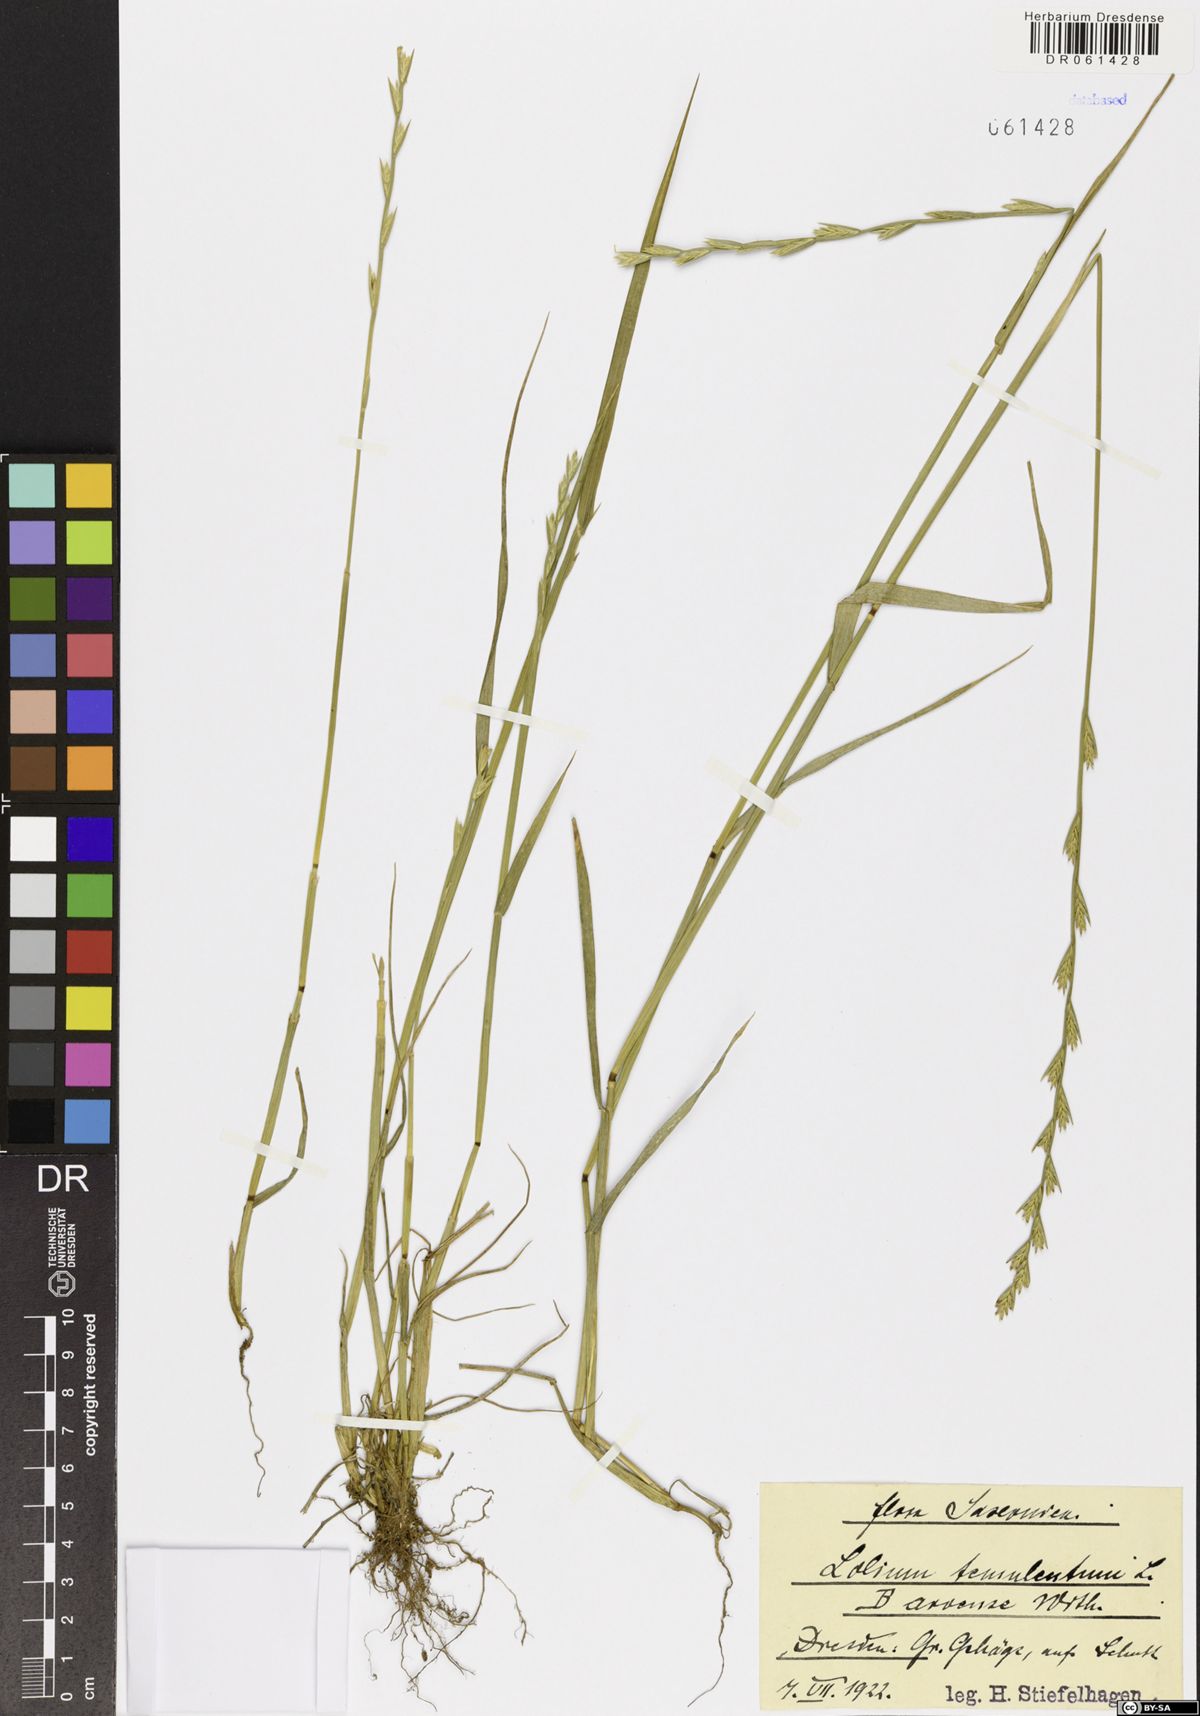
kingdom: Plantae
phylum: Tracheophyta
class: Liliopsida
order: Poales
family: Poaceae
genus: Lolium
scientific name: Lolium temulentum
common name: Darnel
